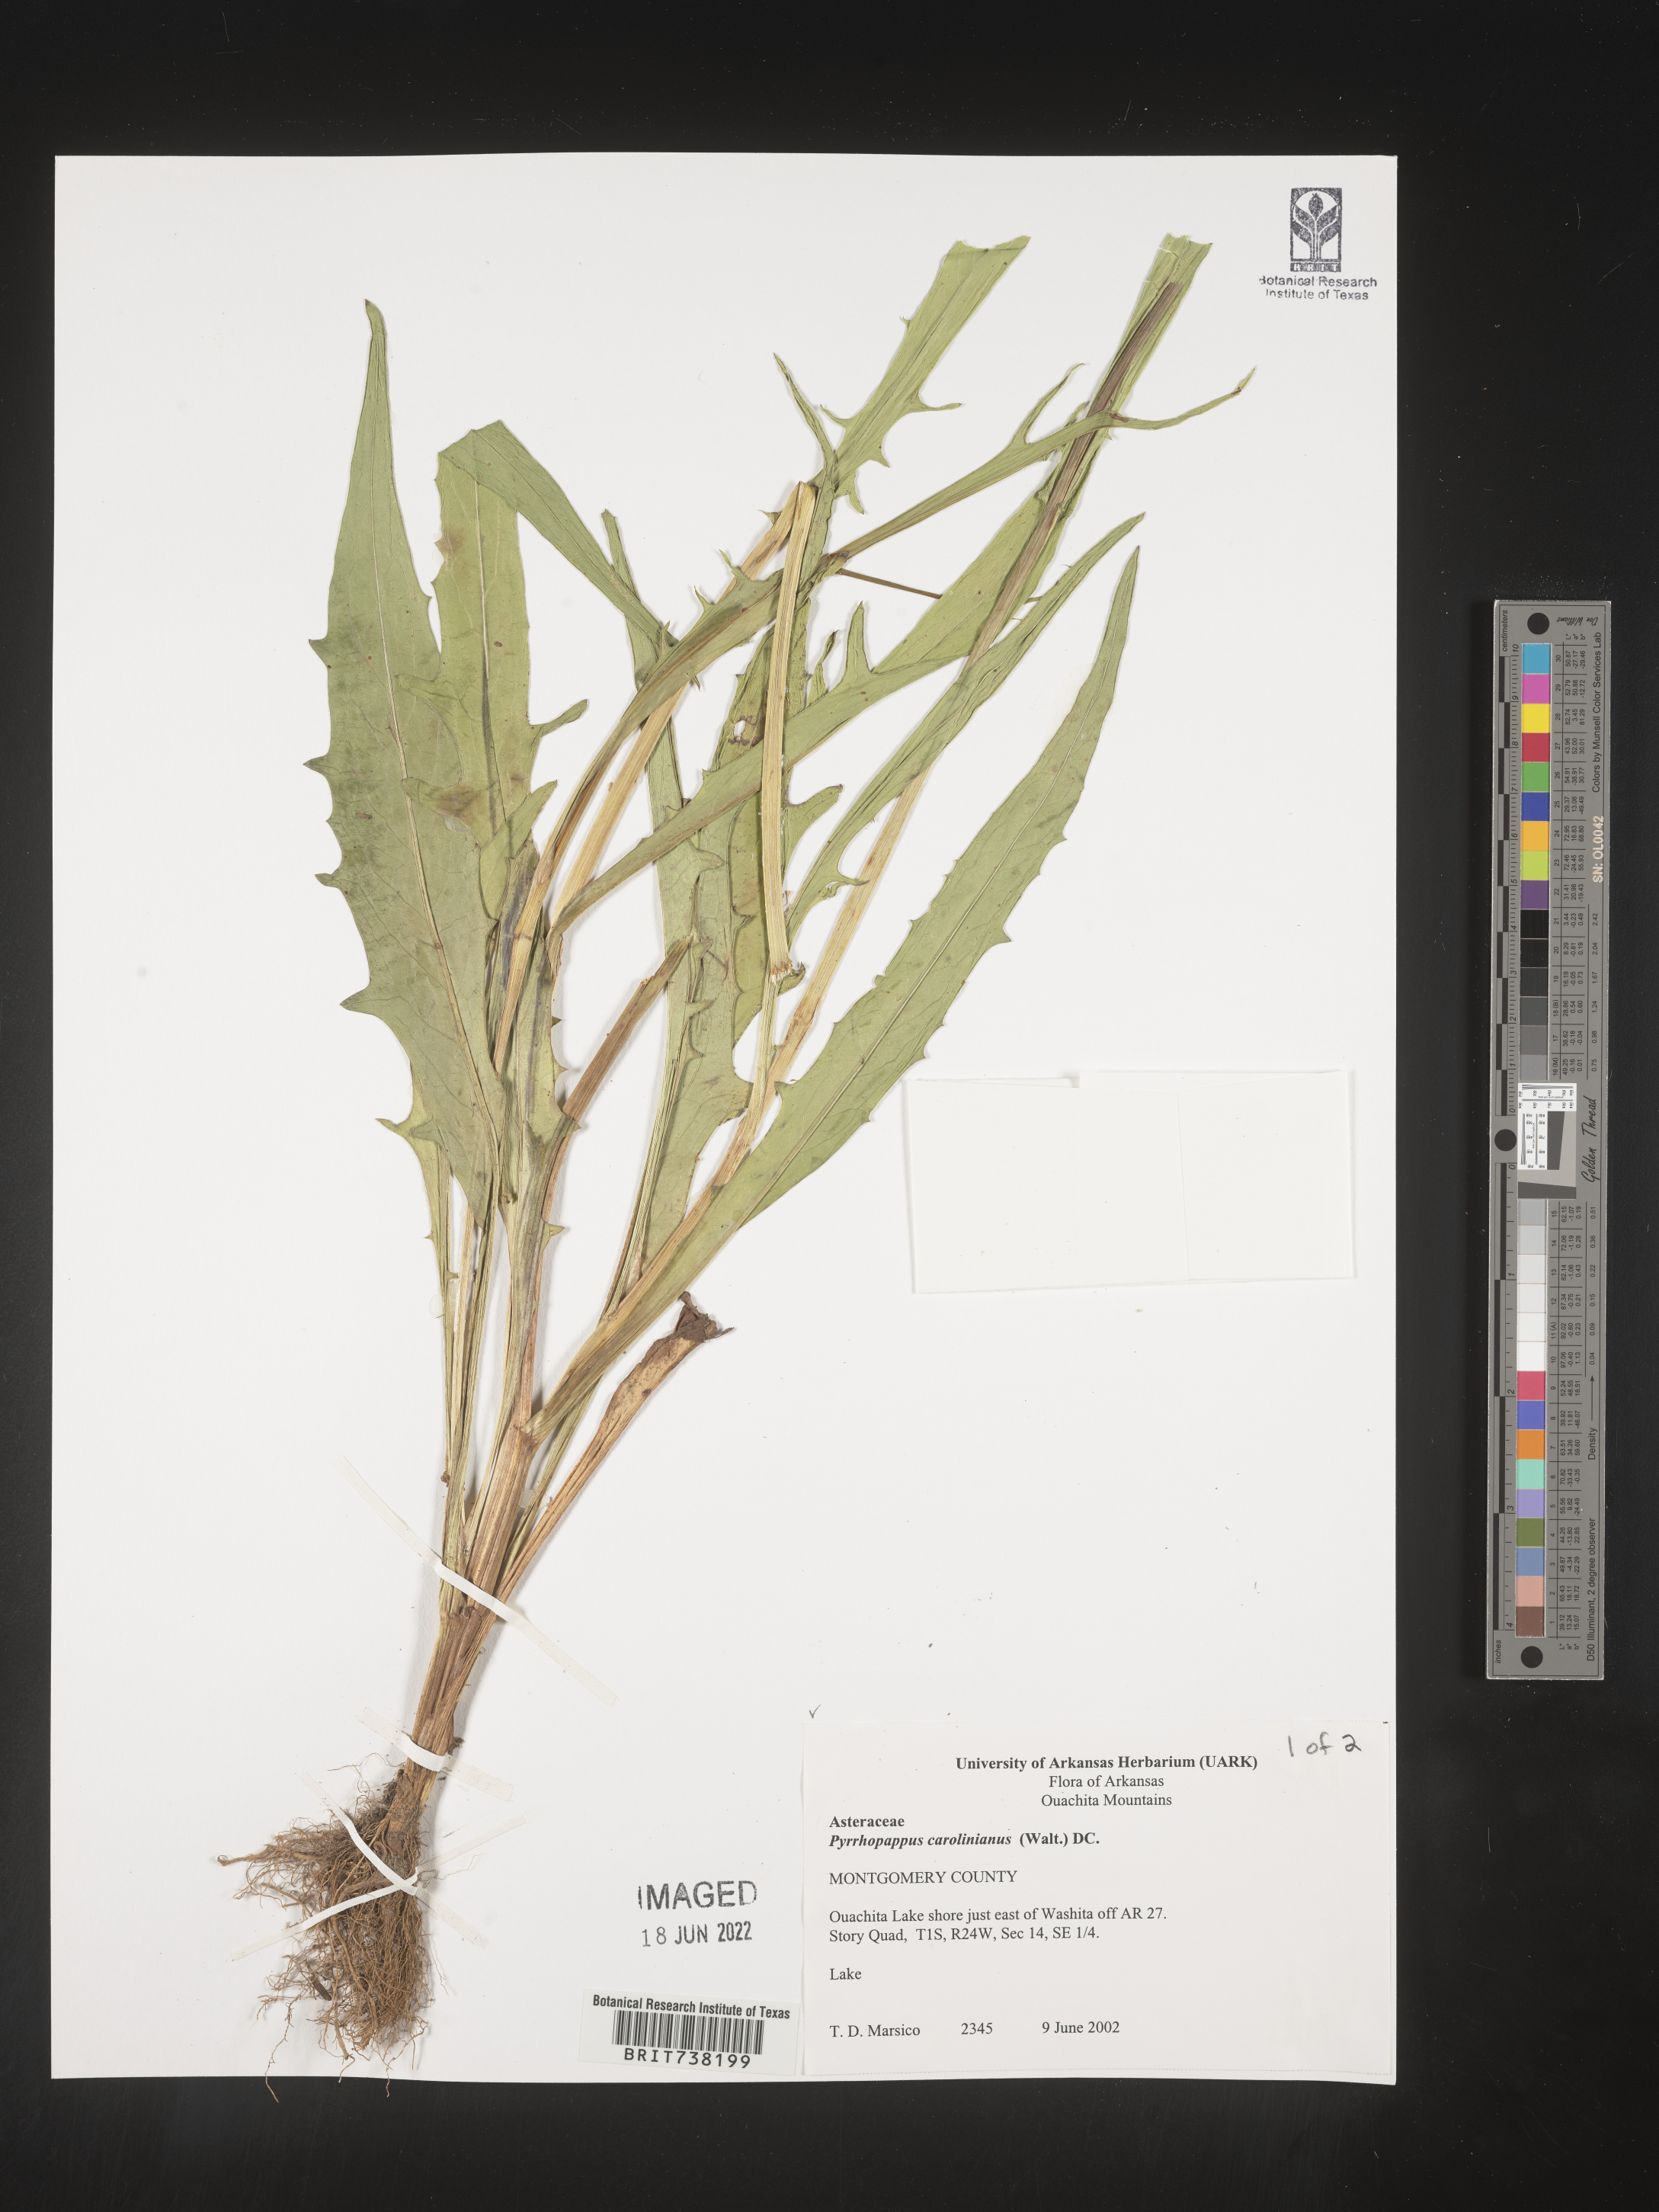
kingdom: Plantae
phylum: Tracheophyta
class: Magnoliopsida
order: Asterales
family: Asteraceae
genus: Pyrrhopappus
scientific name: Pyrrhopappus carolinianus
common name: Carolina desert-chicory
